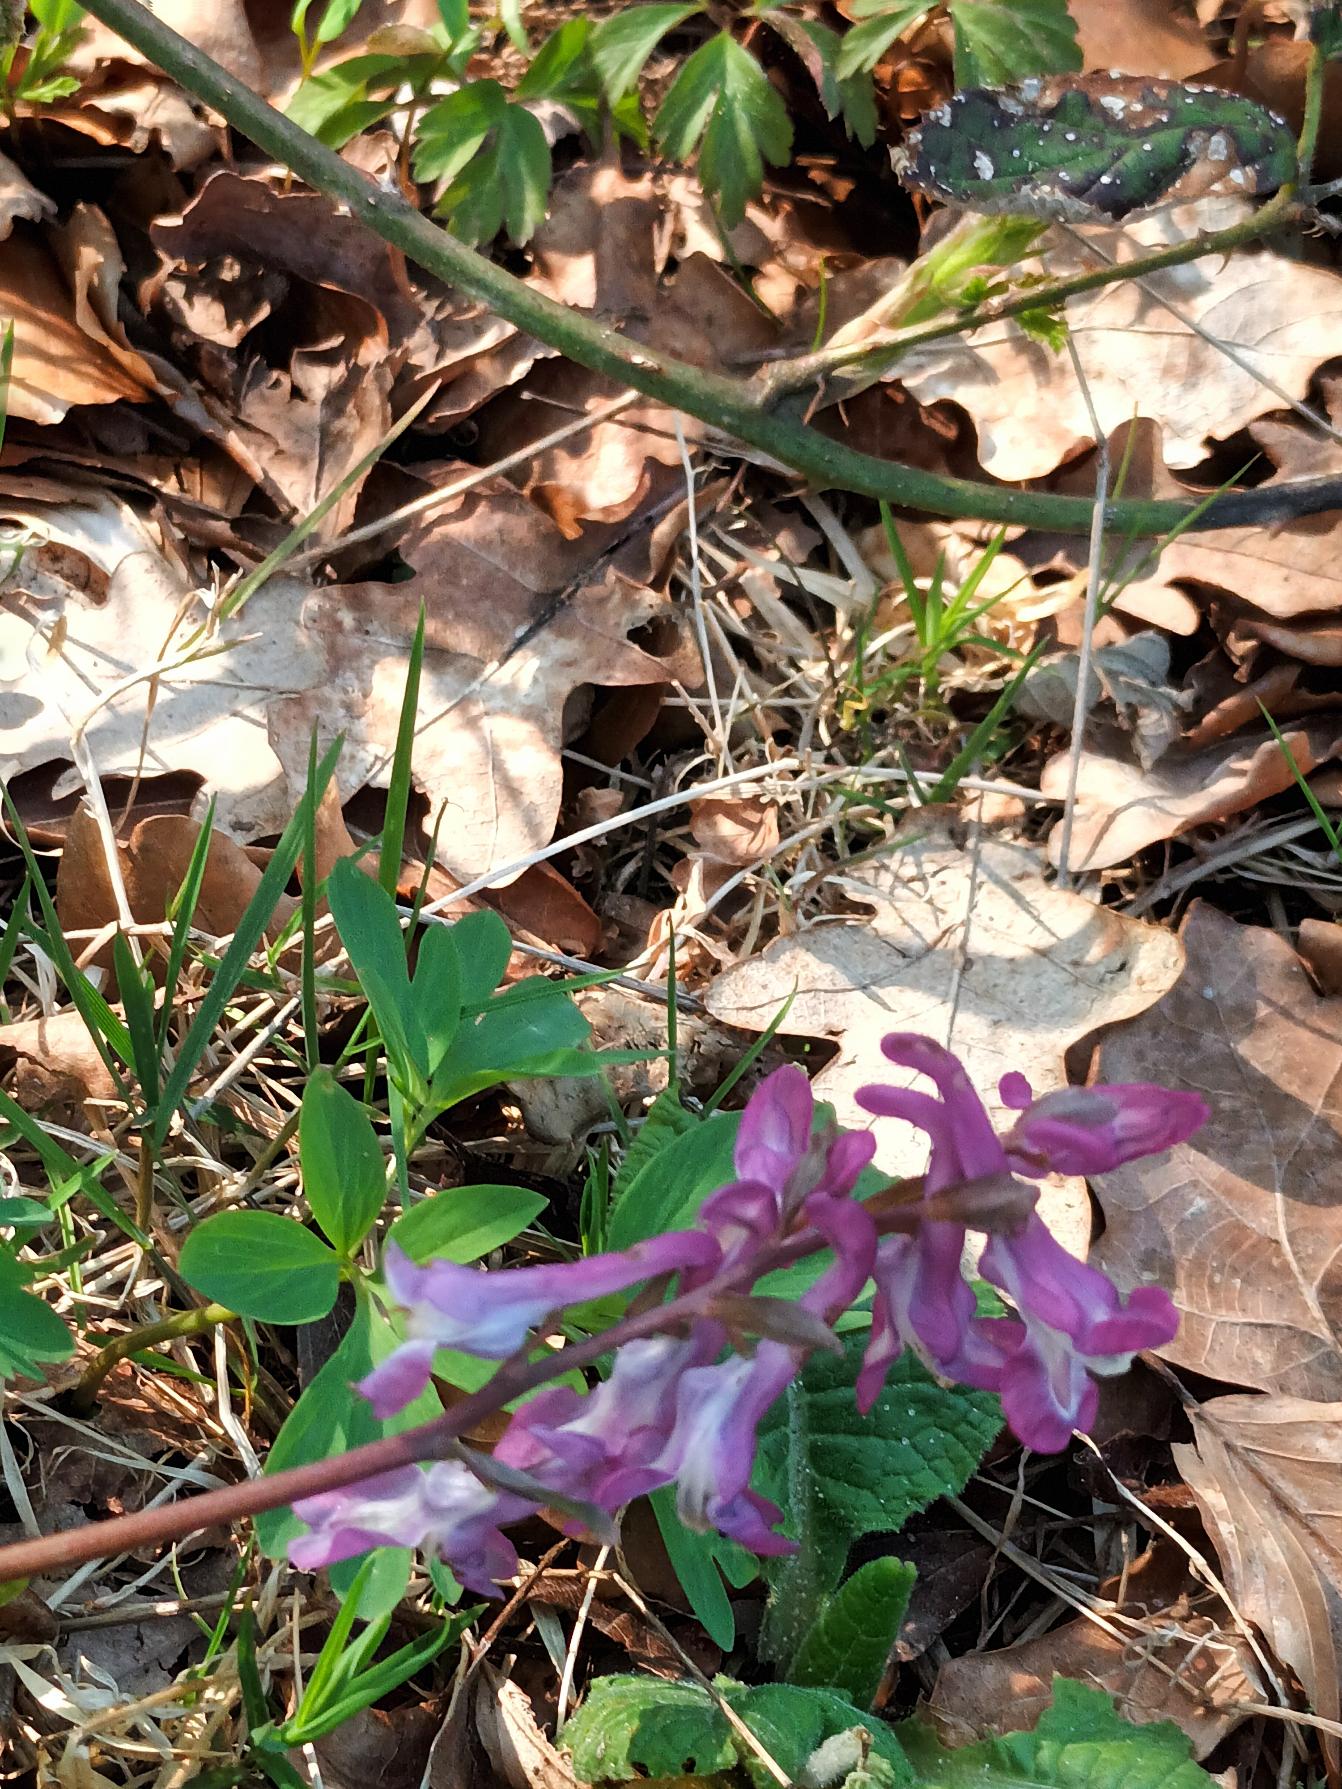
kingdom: Plantae
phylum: Tracheophyta
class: Magnoliopsida
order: Ranunculales
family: Papaveraceae
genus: Corydalis
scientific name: Corydalis cava
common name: Hulrodet lærkespore
